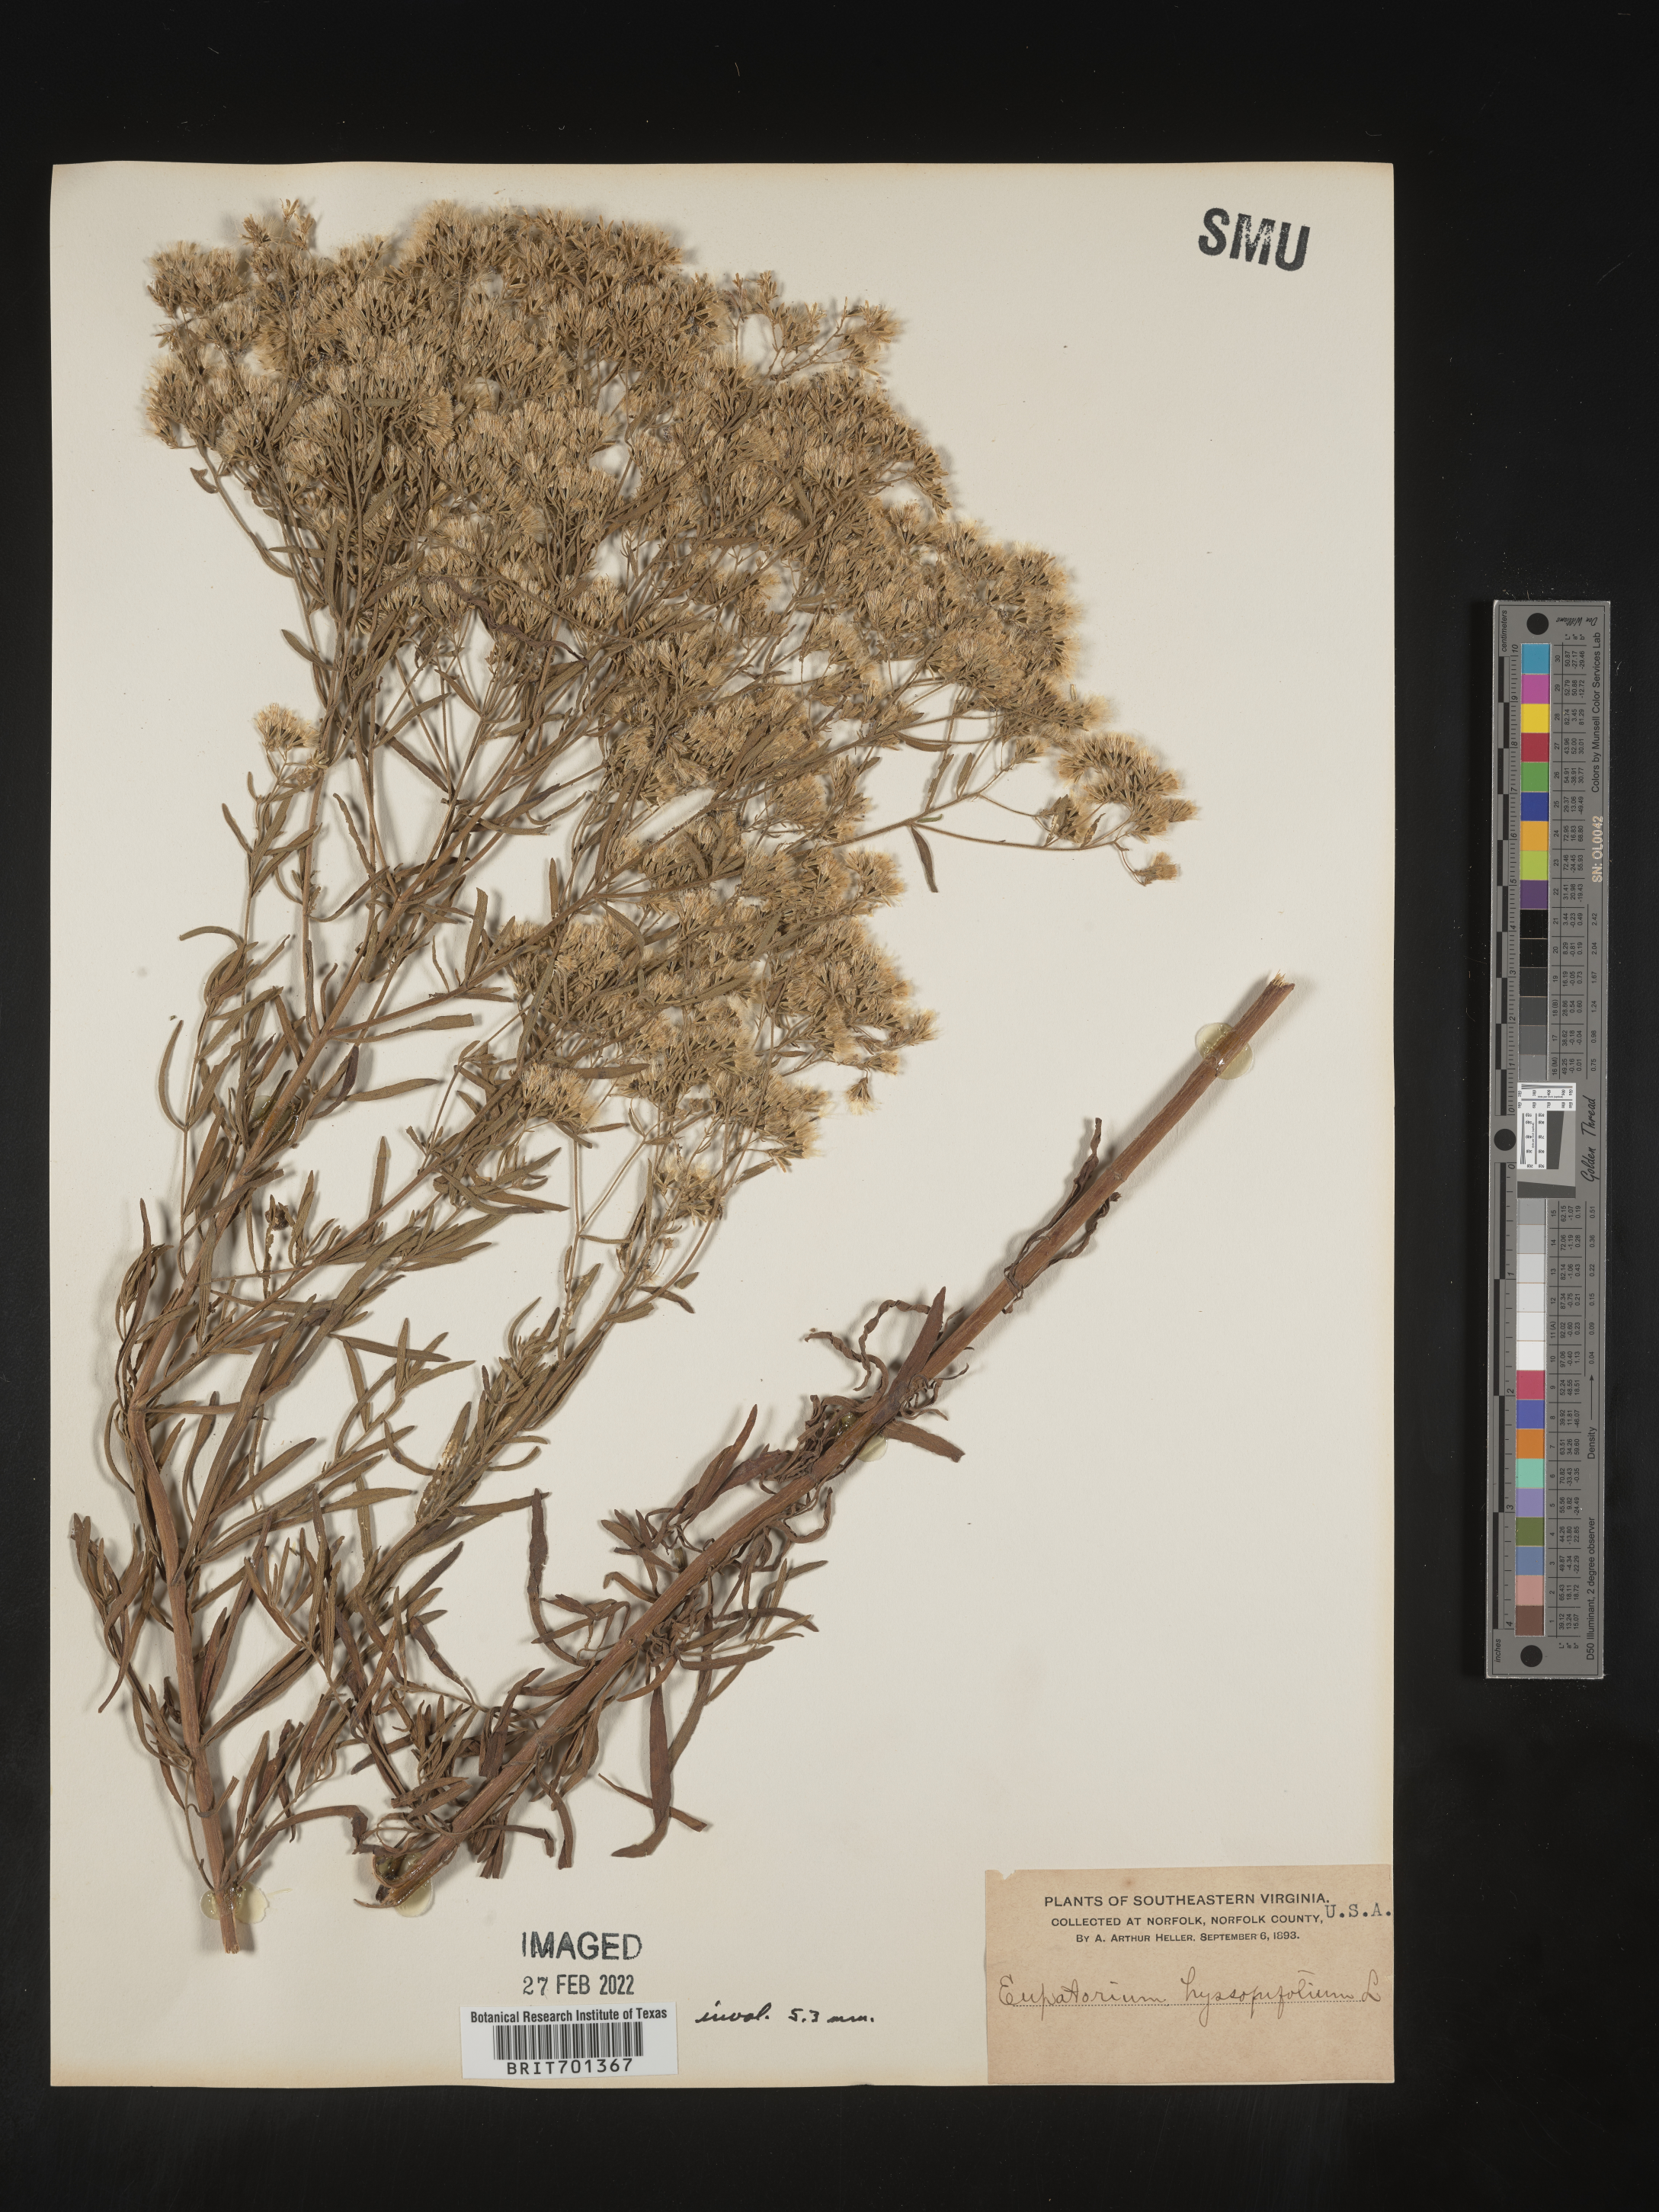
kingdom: Plantae
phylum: Tracheophyta
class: Magnoliopsida
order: Asterales
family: Asteraceae
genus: Eupatorium
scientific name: Eupatorium hyssopifolium
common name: Hyssop-leaf thoroughwort
